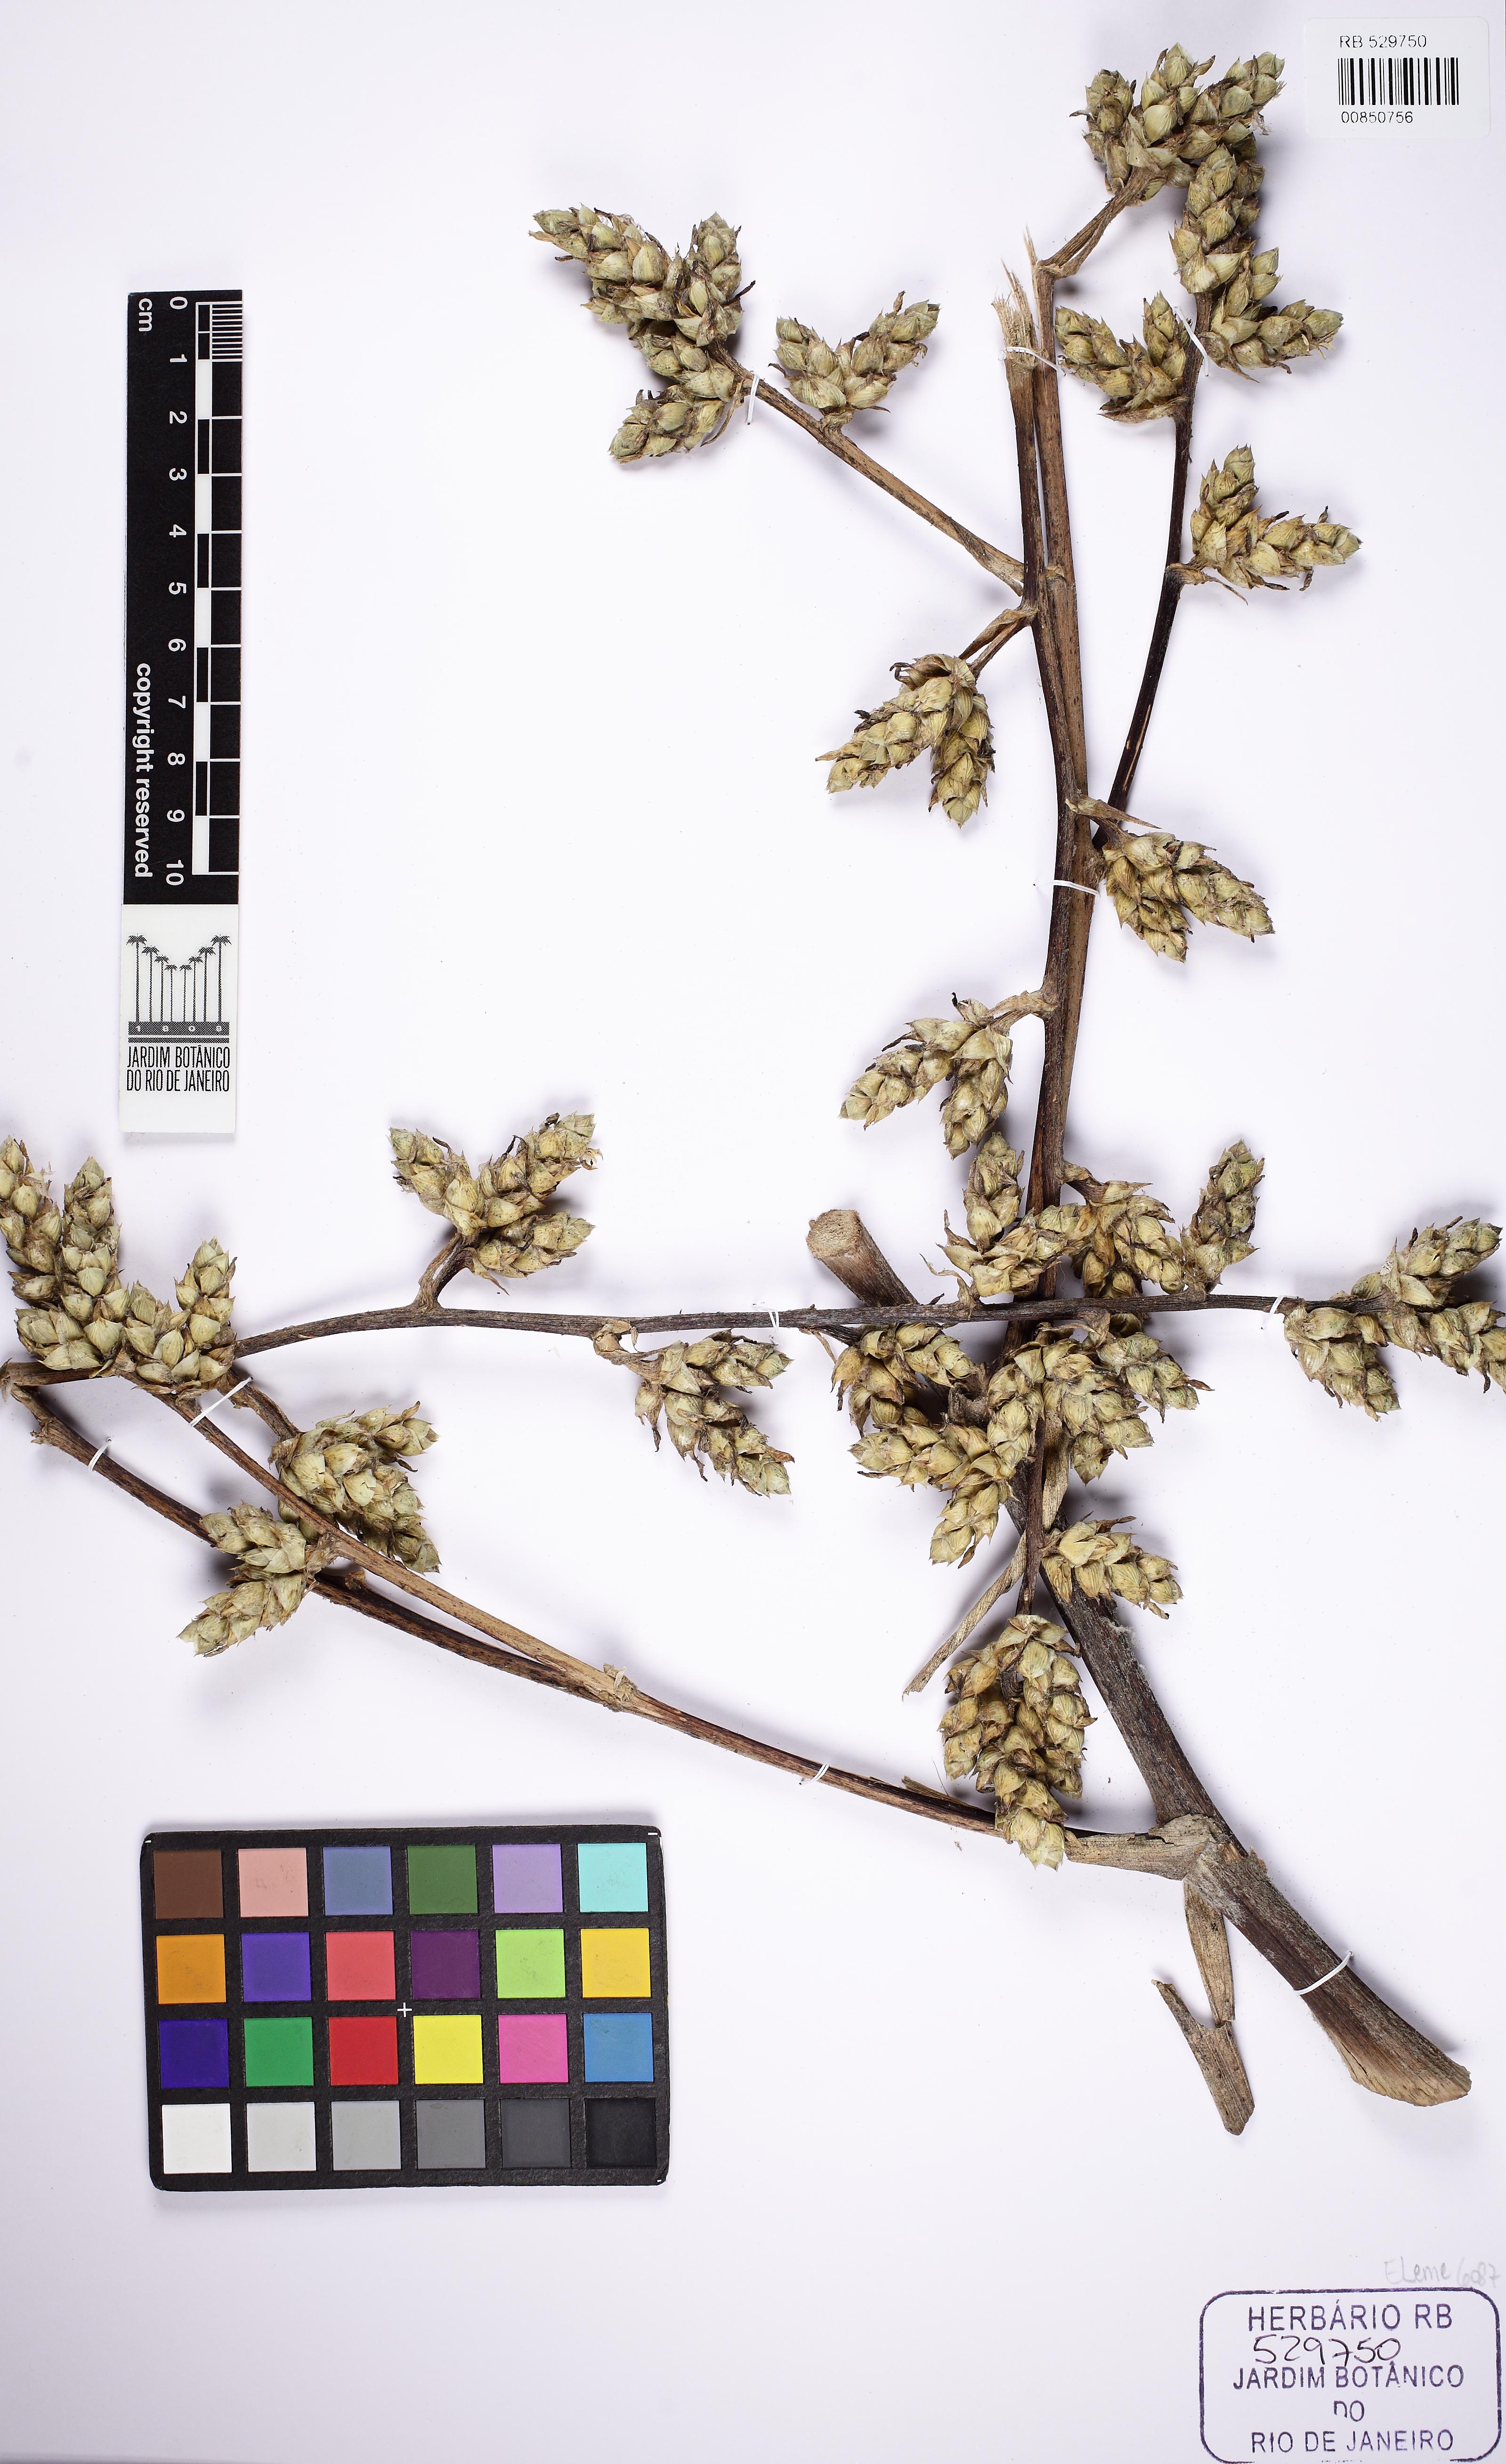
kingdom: Plantae
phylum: Tracheophyta
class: Liliopsida
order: Poales
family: Bromeliaceae
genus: Hohenbergia
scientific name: Hohenbergia viridirubra
